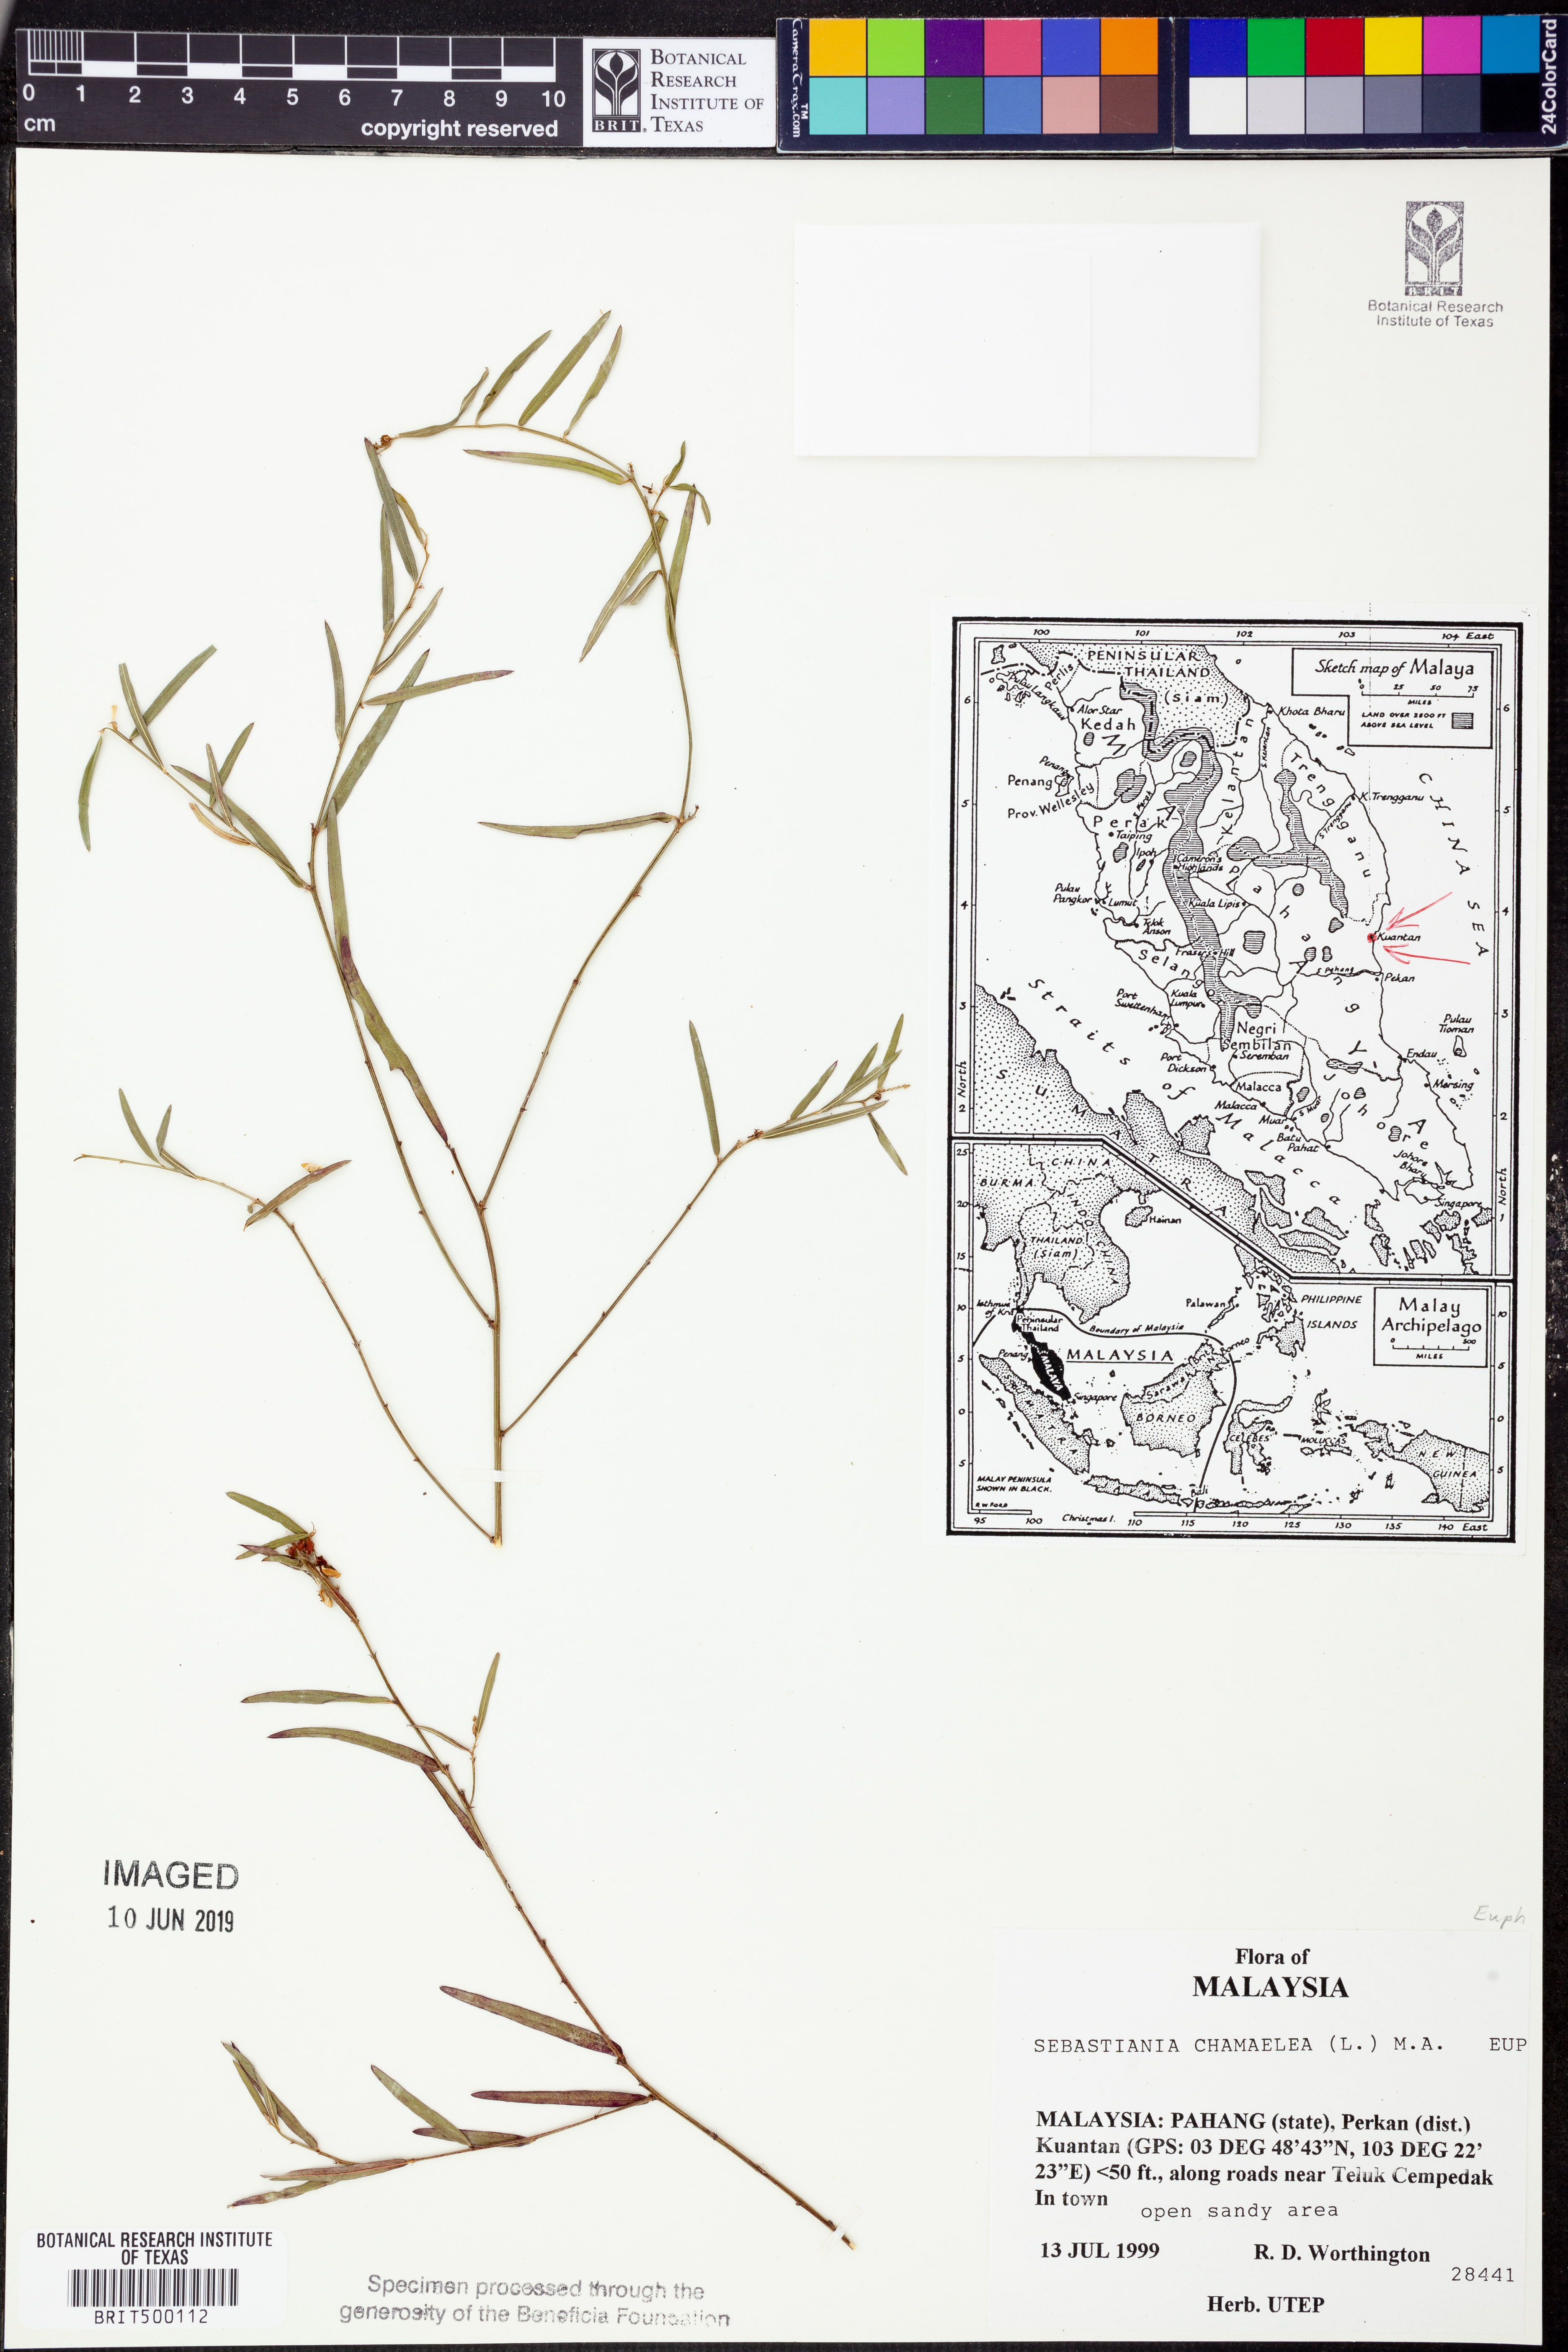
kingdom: Plantae
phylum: Tracheophyta
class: Magnoliopsida
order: Malpighiales
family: Euphorbiaceae
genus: Microstachys
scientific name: Microstachys chamaelea
